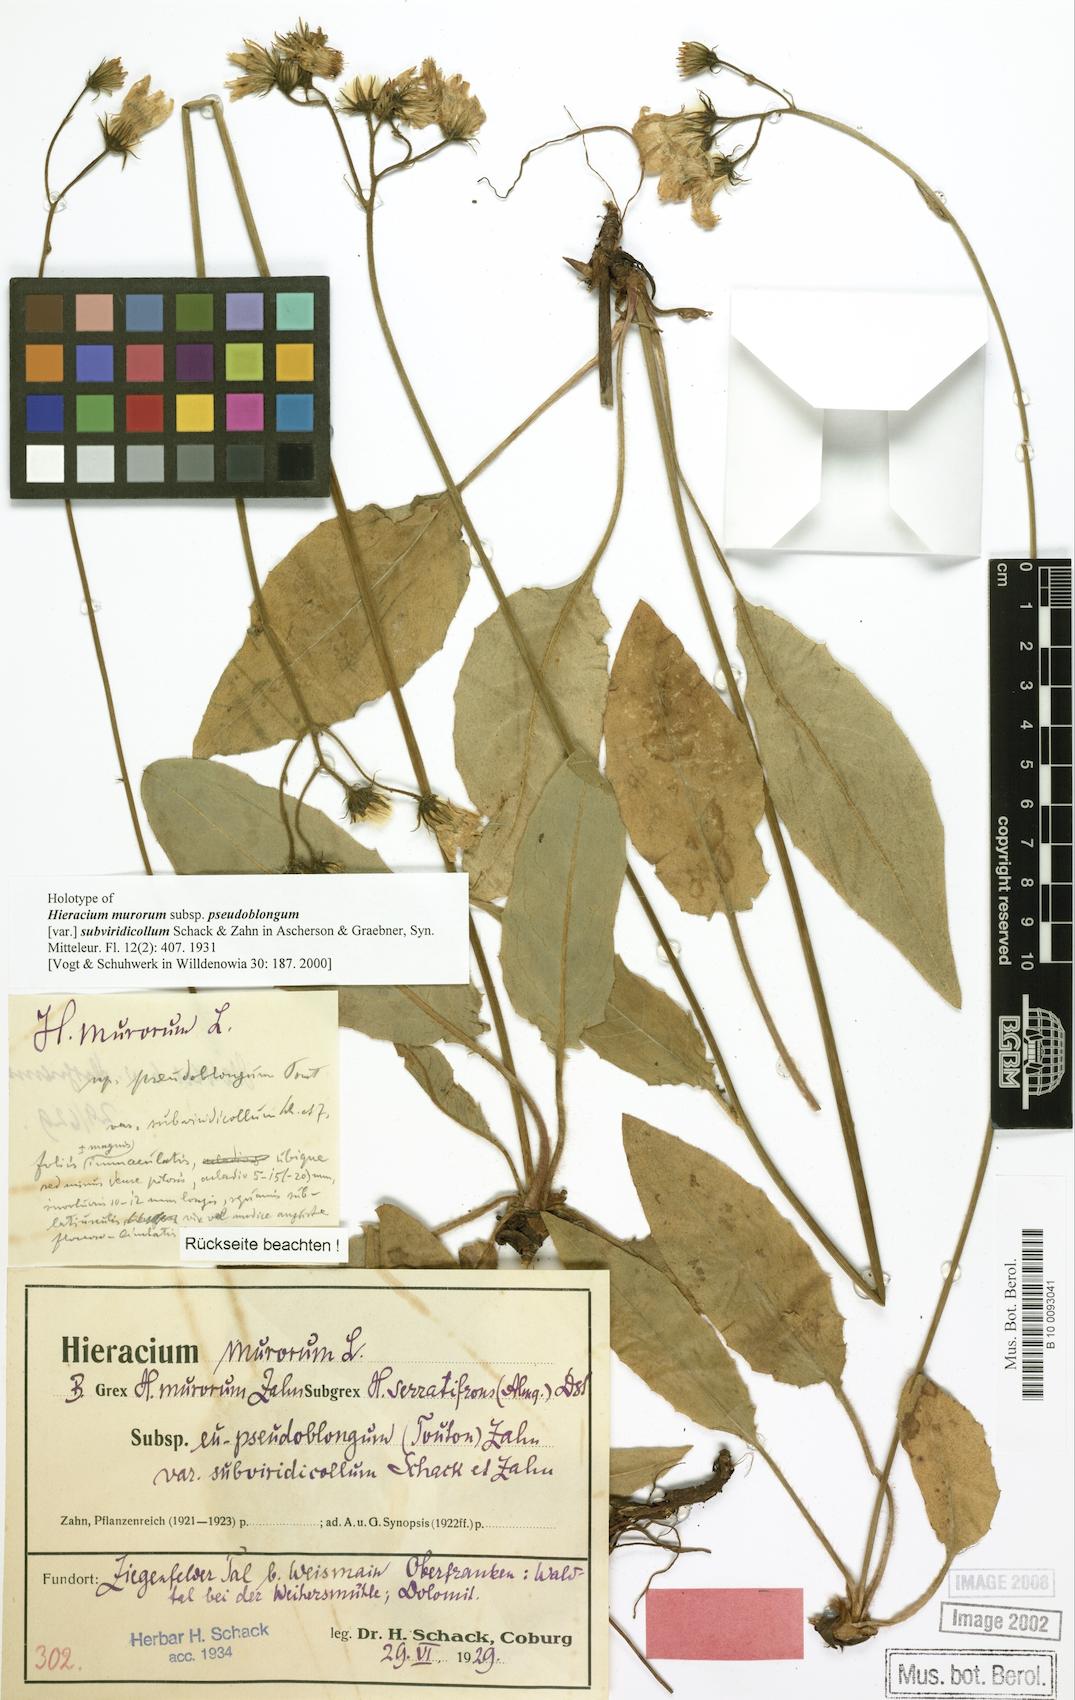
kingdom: Plantae
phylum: Tracheophyta
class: Magnoliopsida
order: Asterales
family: Asteraceae
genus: Hieracium
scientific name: Hieracium murorum
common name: Wall hawkweed
